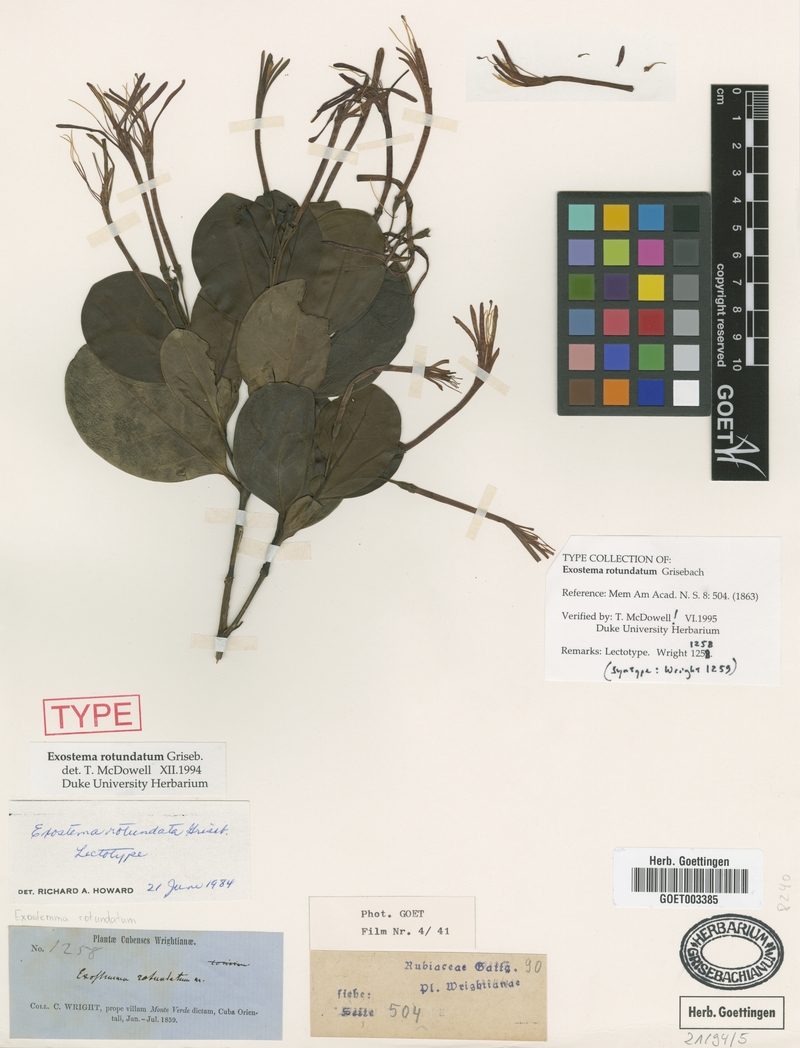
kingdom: Plantae
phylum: Tracheophyta
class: Magnoliopsida
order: Gentianales
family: Rubiaceae
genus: Solenandra
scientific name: Solenandra rotundata
